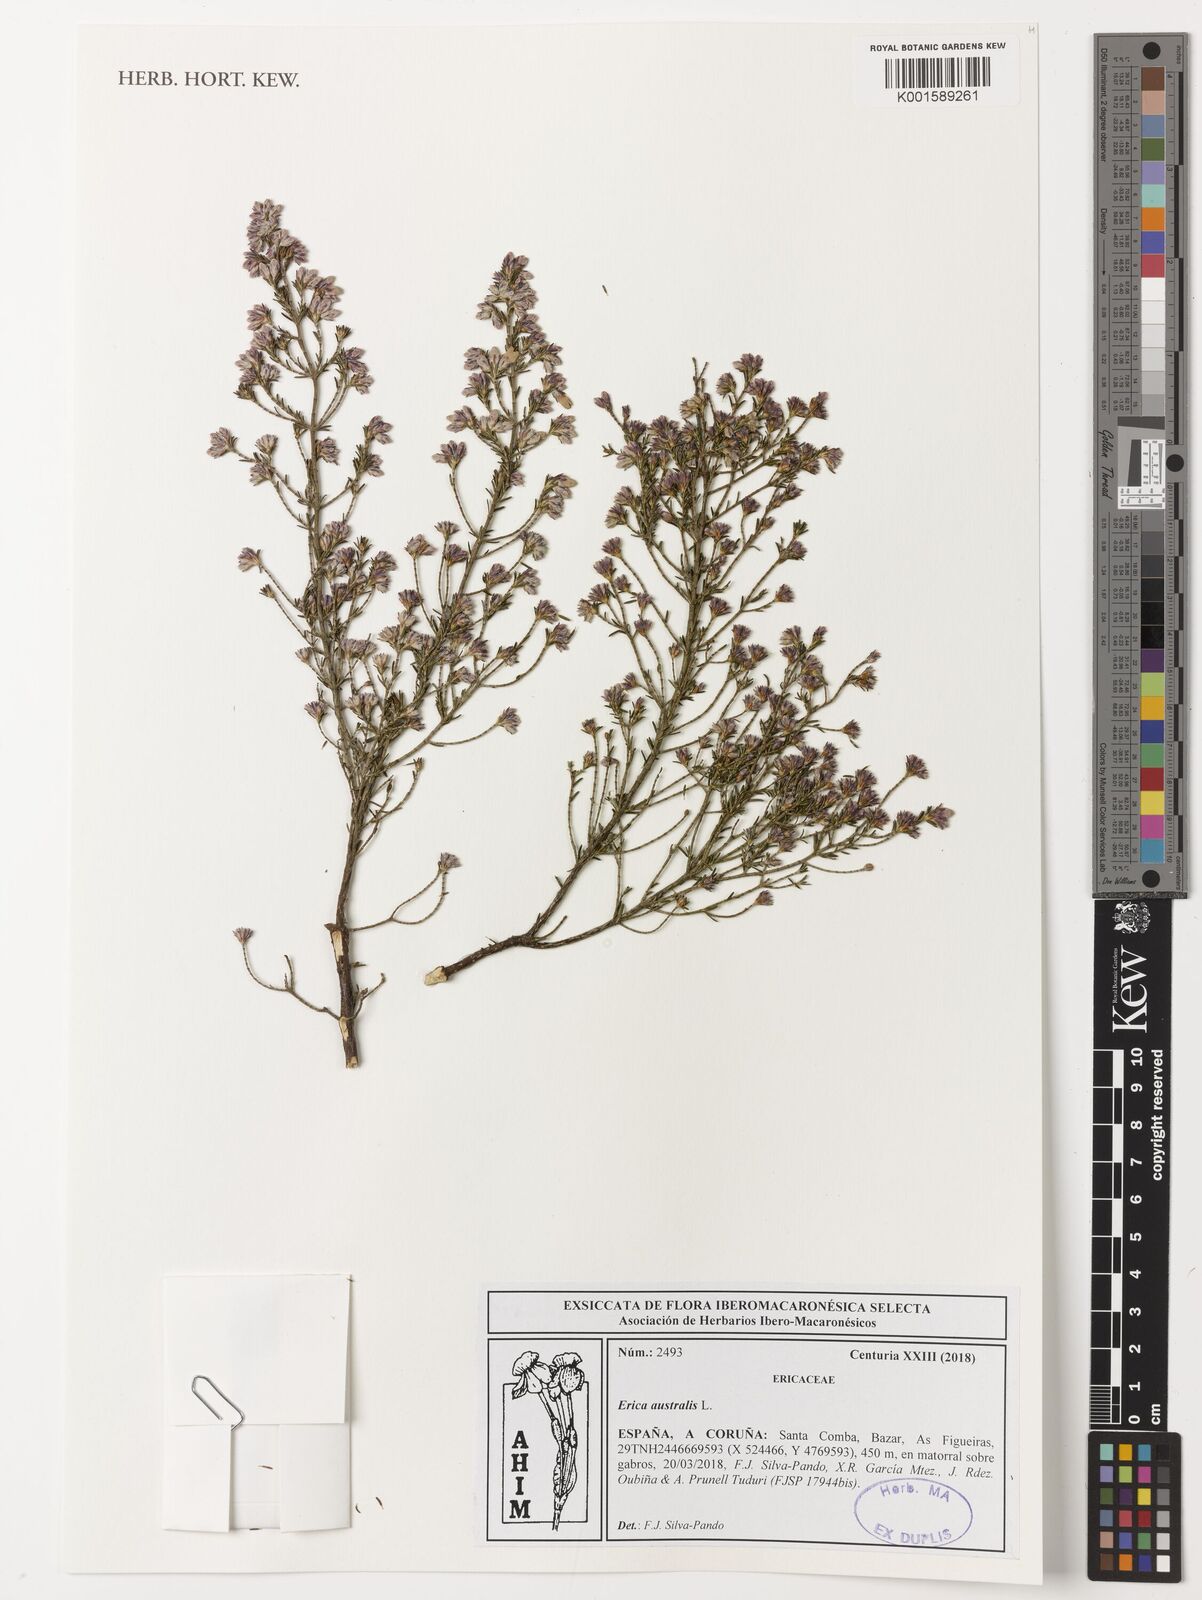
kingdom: Plantae
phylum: Tracheophyta
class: Magnoliopsida
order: Ericales
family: Ericaceae
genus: Erica
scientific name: Erica australis
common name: Spanish heath
